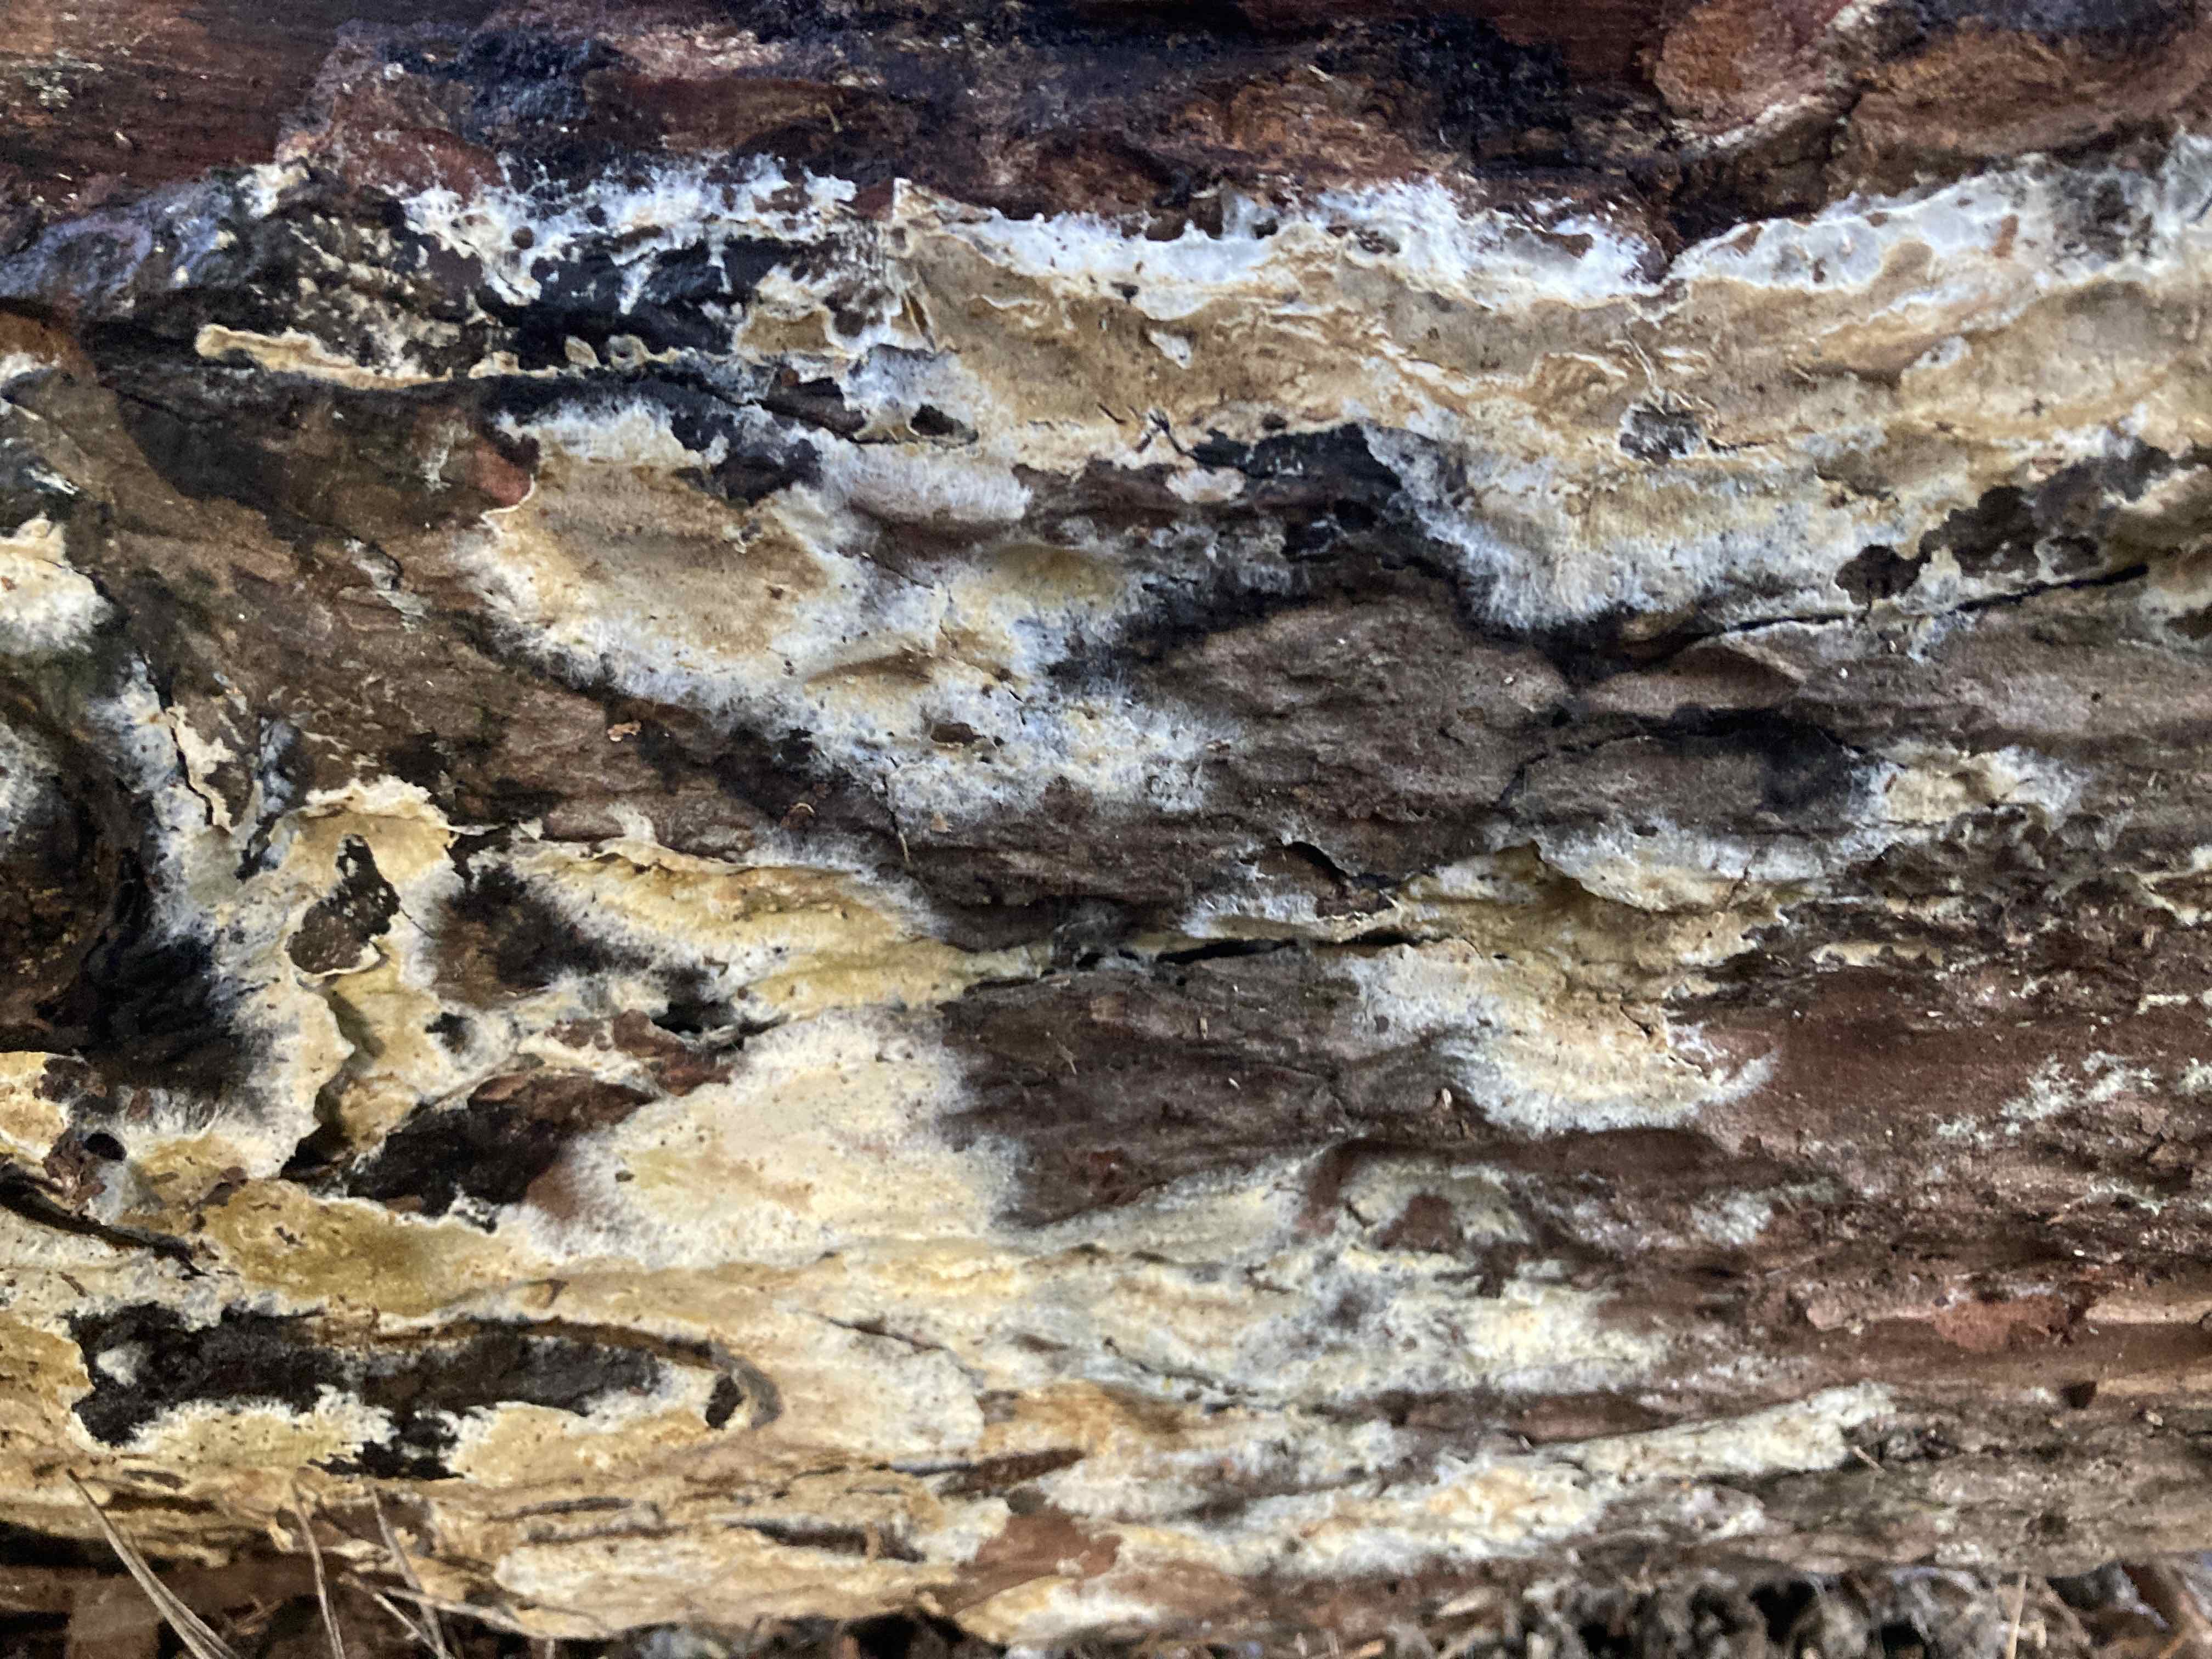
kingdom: Fungi
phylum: Basidiomycota
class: Agaricomycetes
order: Boletales
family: Coniophoraceae
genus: Coniophora
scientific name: Coniophora puteana
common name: gul tømmersvamp
